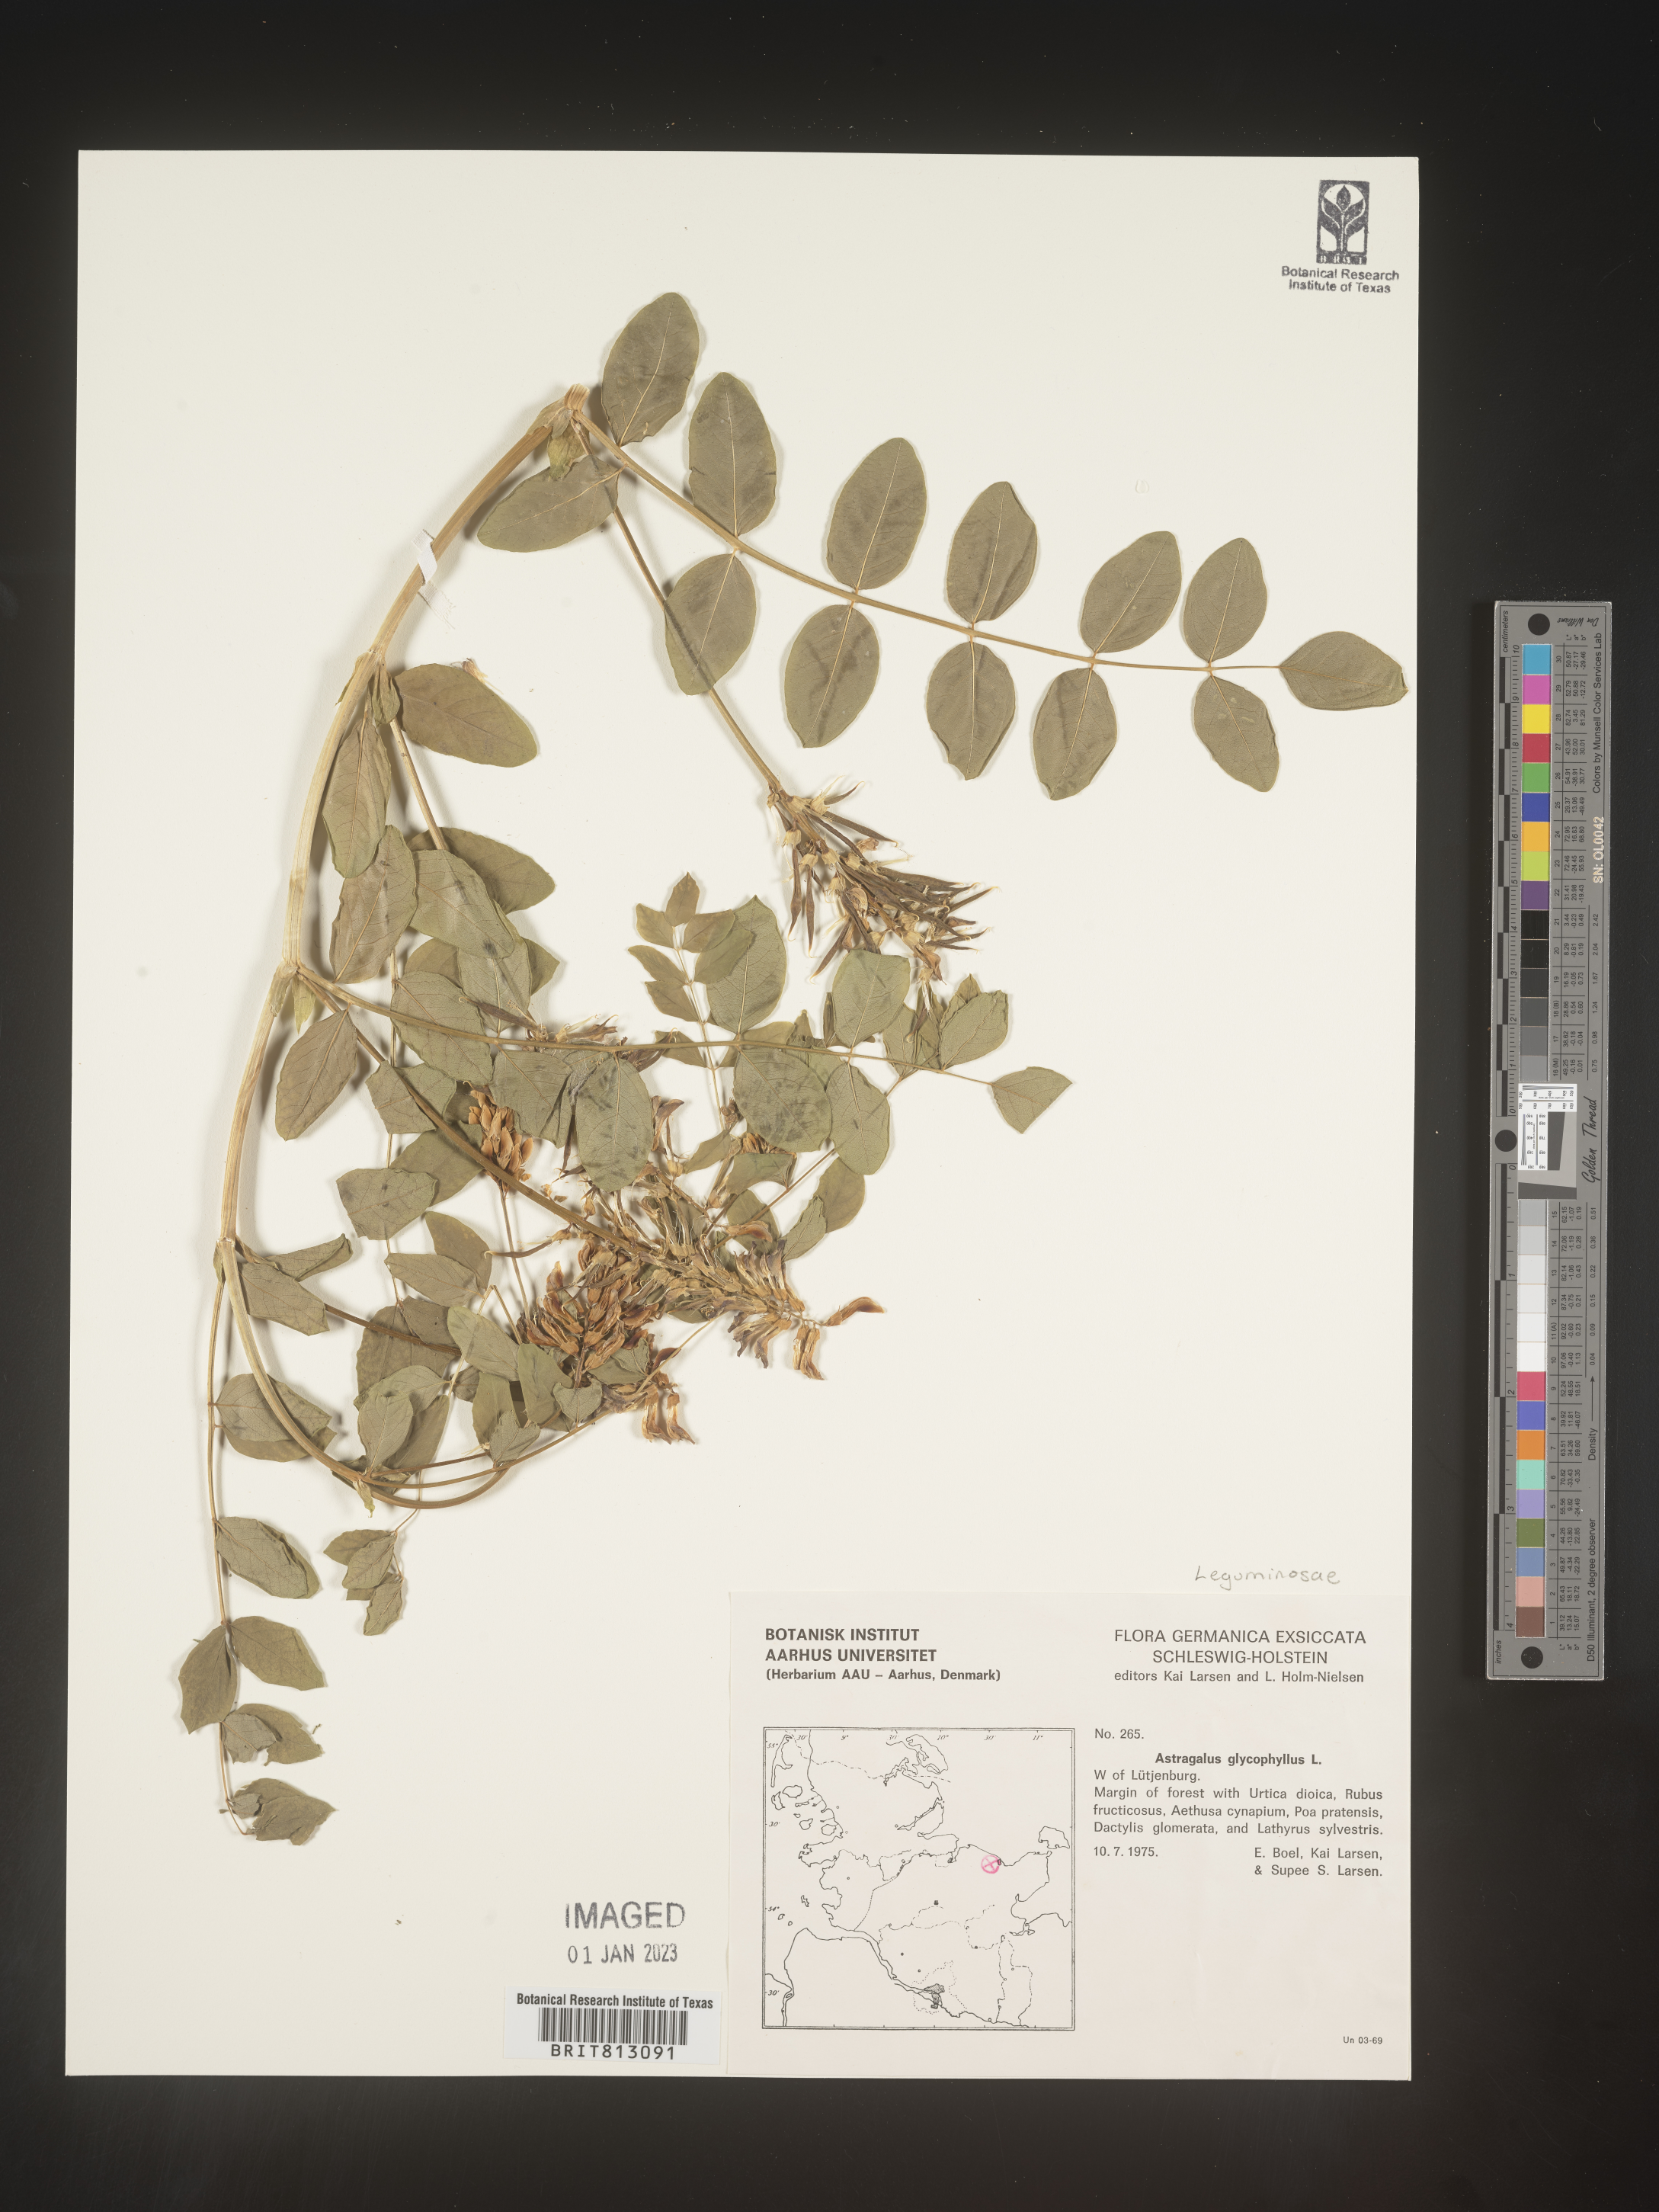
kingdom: Plantae
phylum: Tracheophyta
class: Magnoliopsida
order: Fabales
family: Fabaceae
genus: Astragalus
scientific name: Astragalus
